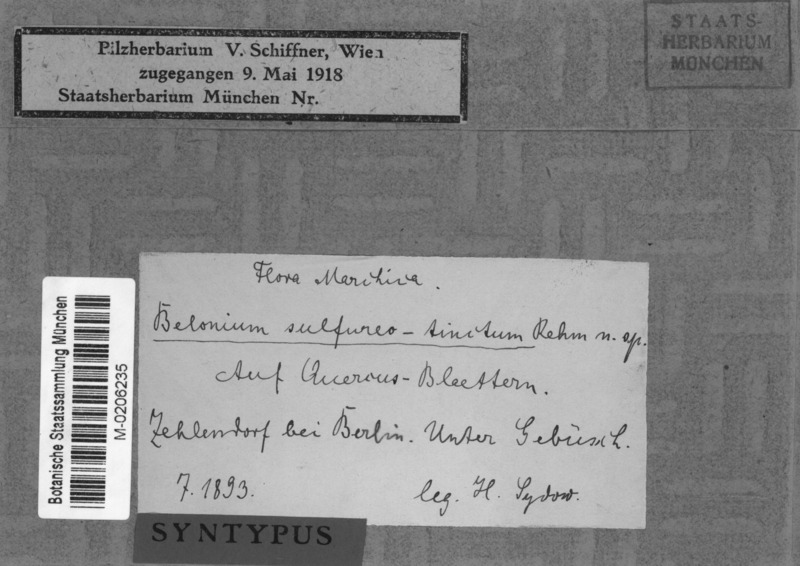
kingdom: Fungi
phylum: Ascomycota
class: Leotiomycetes
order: Helotiales
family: Mollisiaceae
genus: Niptera
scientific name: Niptera sulphureotincta
